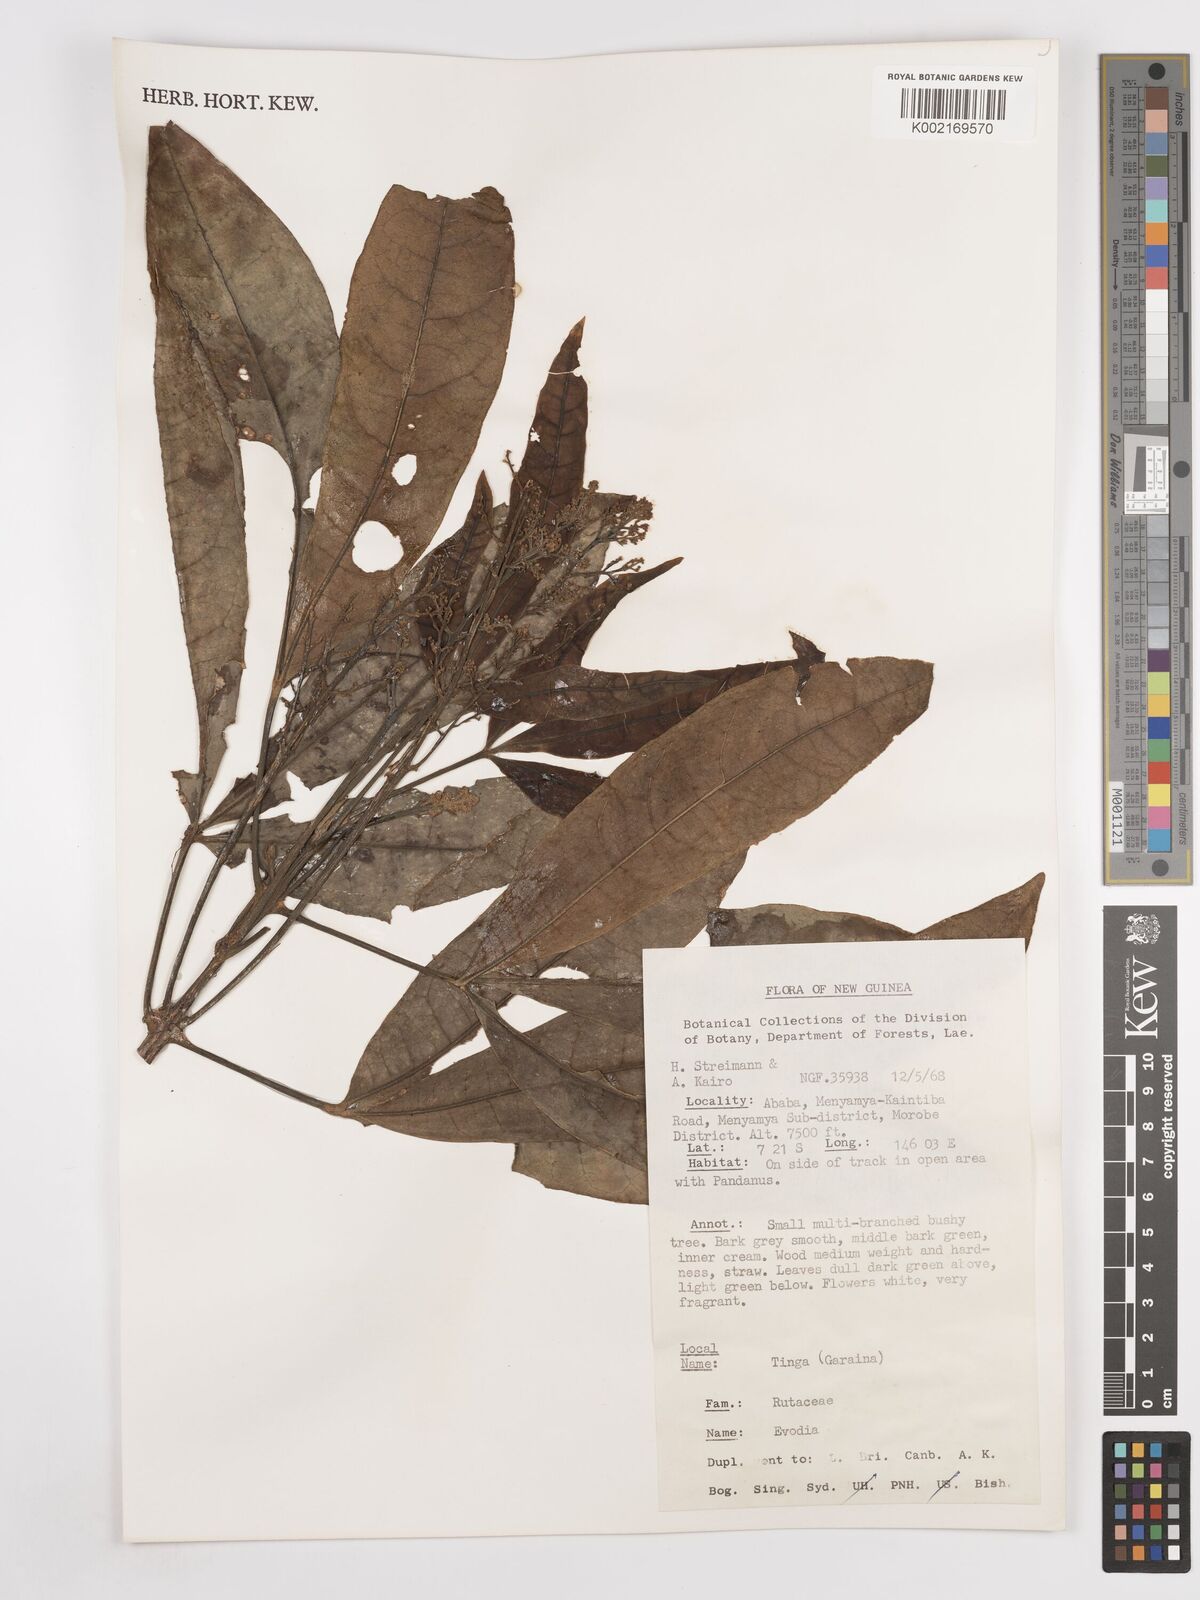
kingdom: Plantae
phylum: Tracheophyta
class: Magnoliopsida
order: Sapindales
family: Rutaceae
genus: Euodia
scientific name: Euodia
